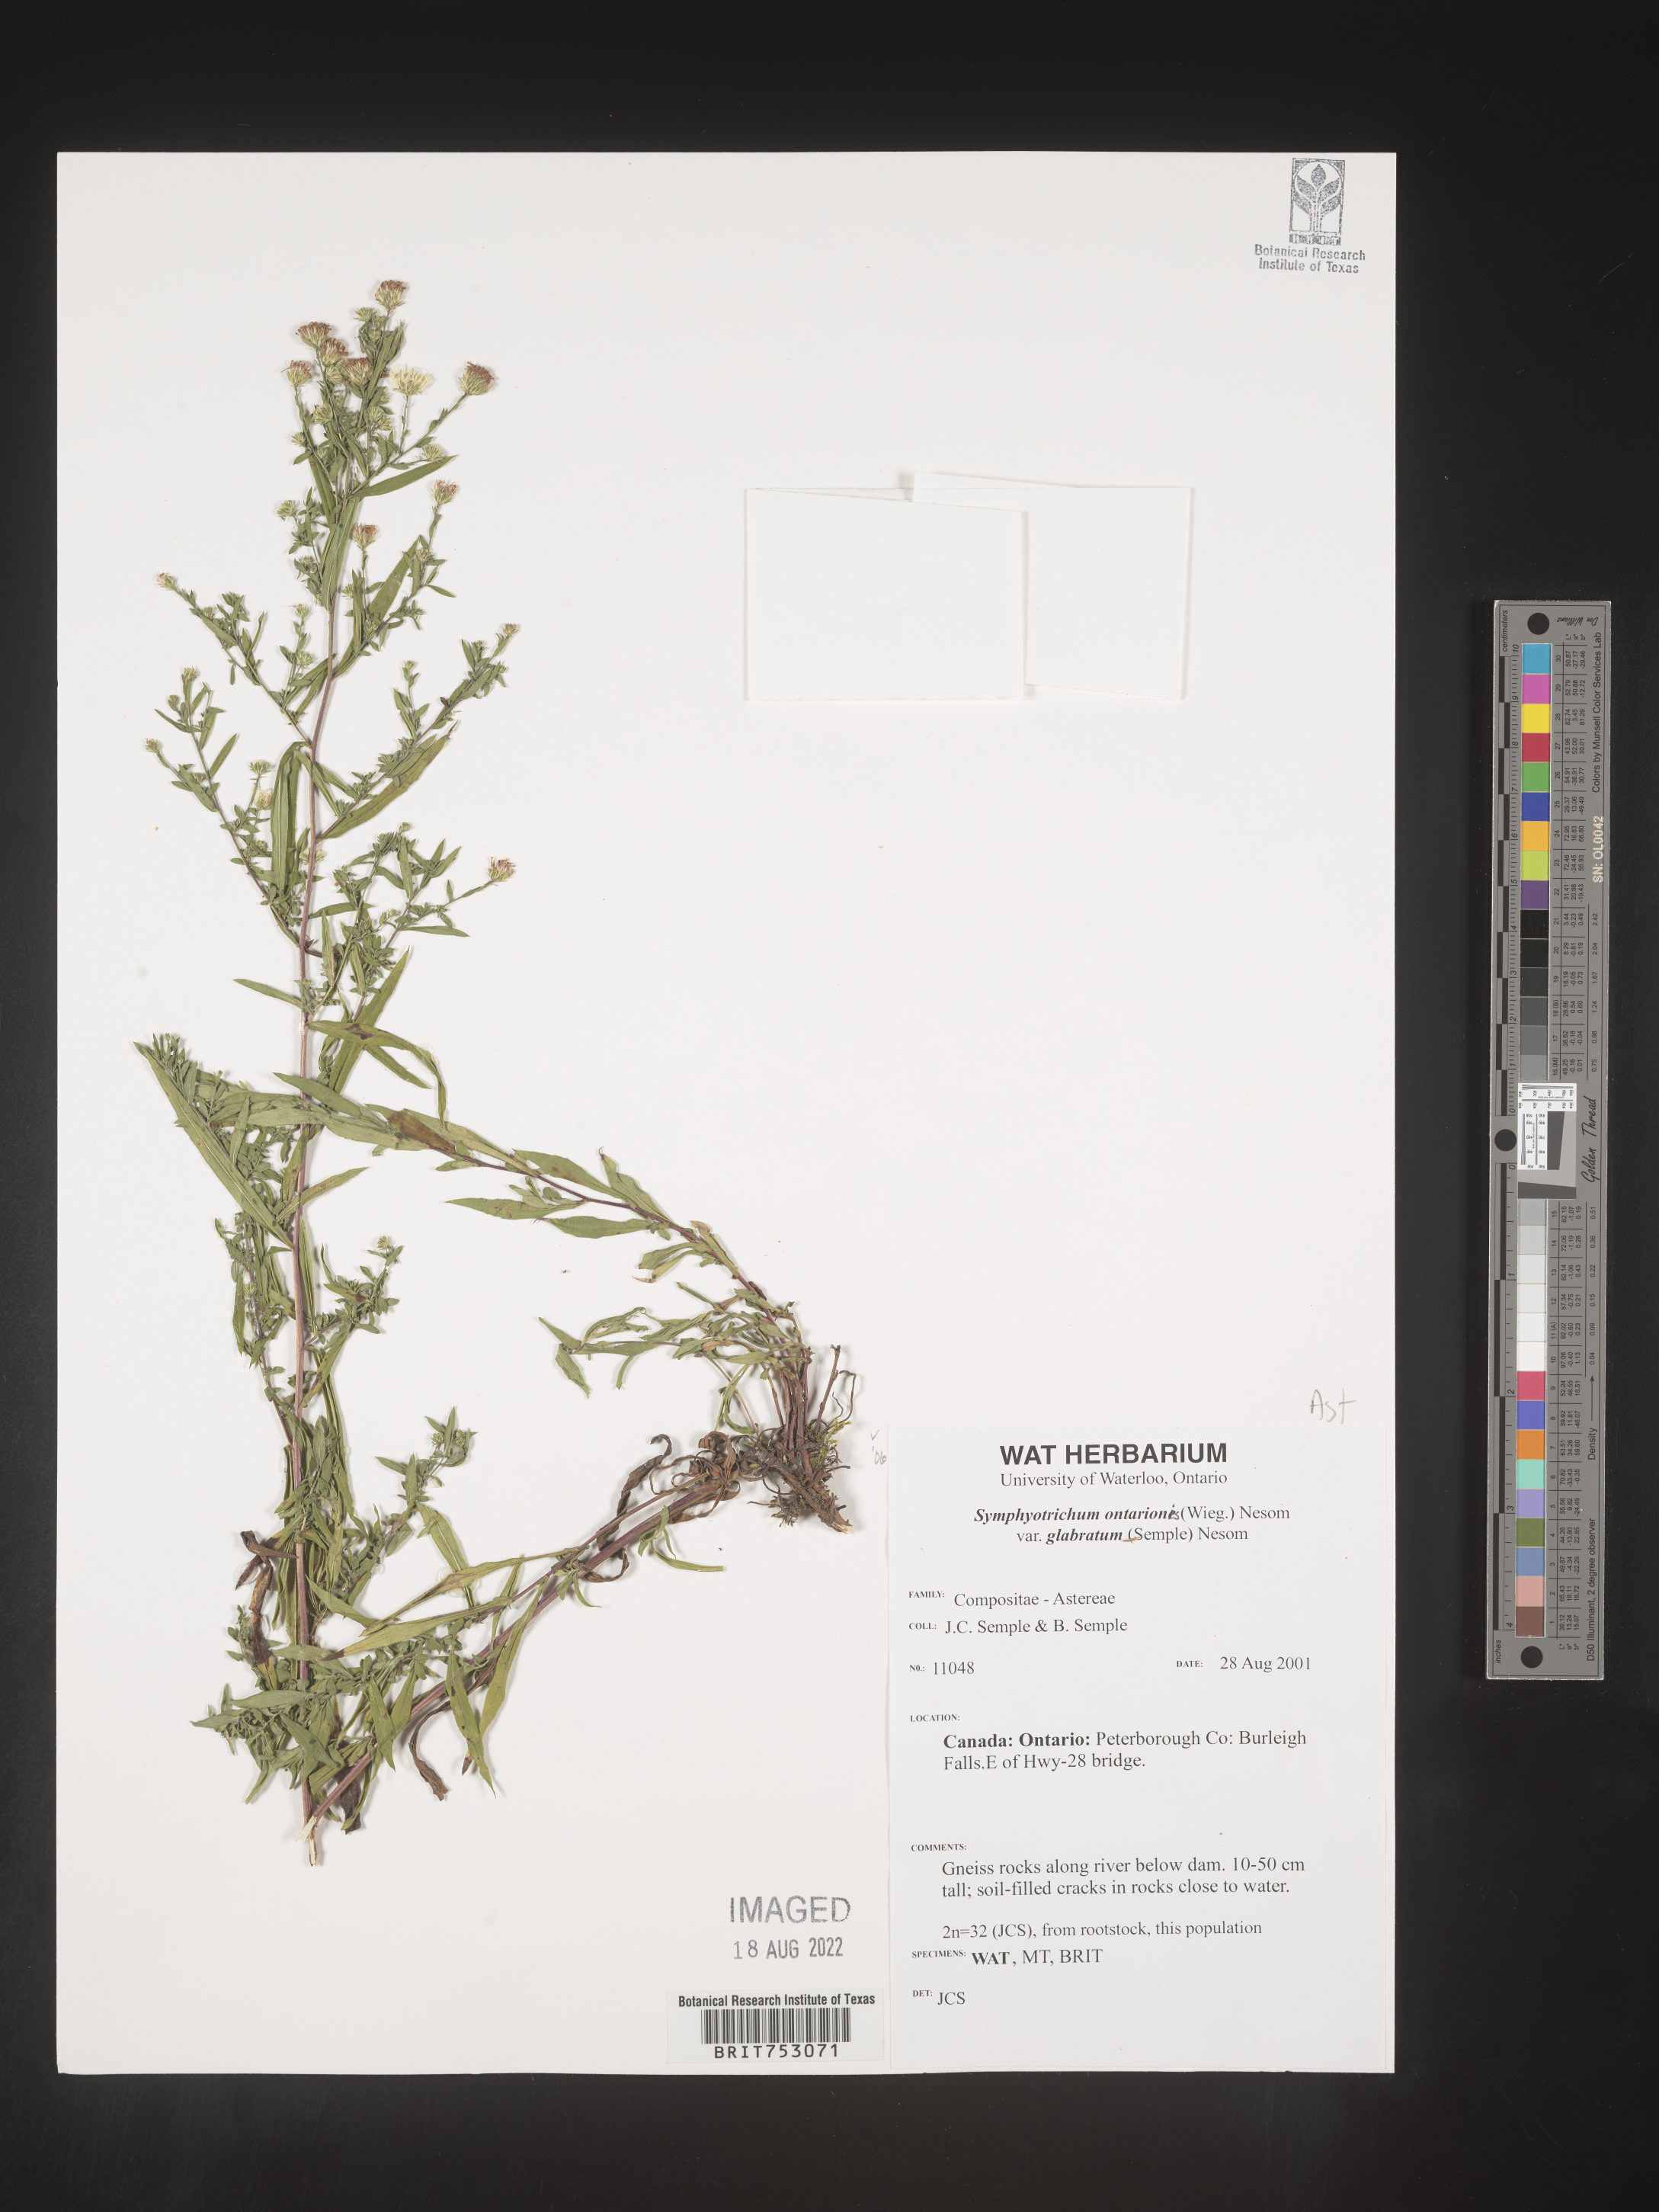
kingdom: Plantae
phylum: Tracheophyta
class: Magnoliopsida
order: Asterales
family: Asteraceae
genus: Symphyotrichum
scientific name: Symphyotrichum ontarionis
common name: Bottomland aster
